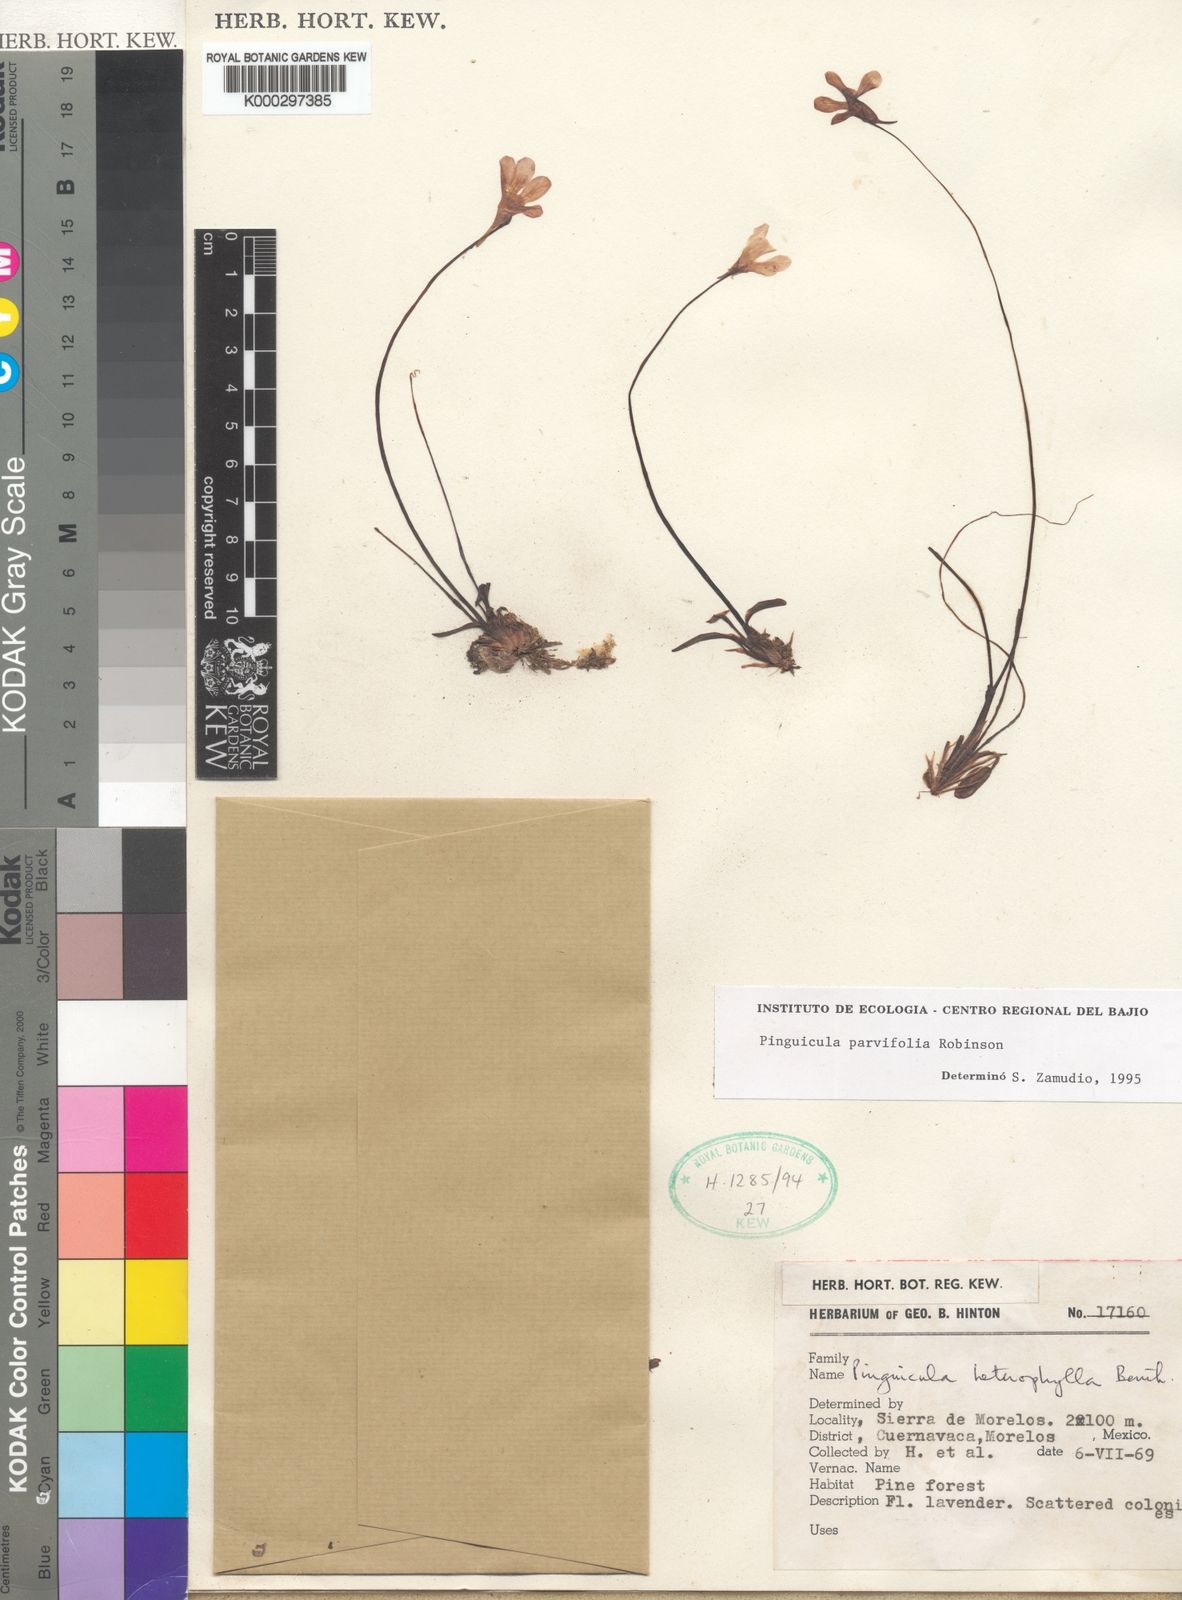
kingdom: Plantae
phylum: Tracheophyta
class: Magnoliopsida
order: Lamiales
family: Lentibulariaceae
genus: Pinguicula
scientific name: Pinguicula parvifolia
